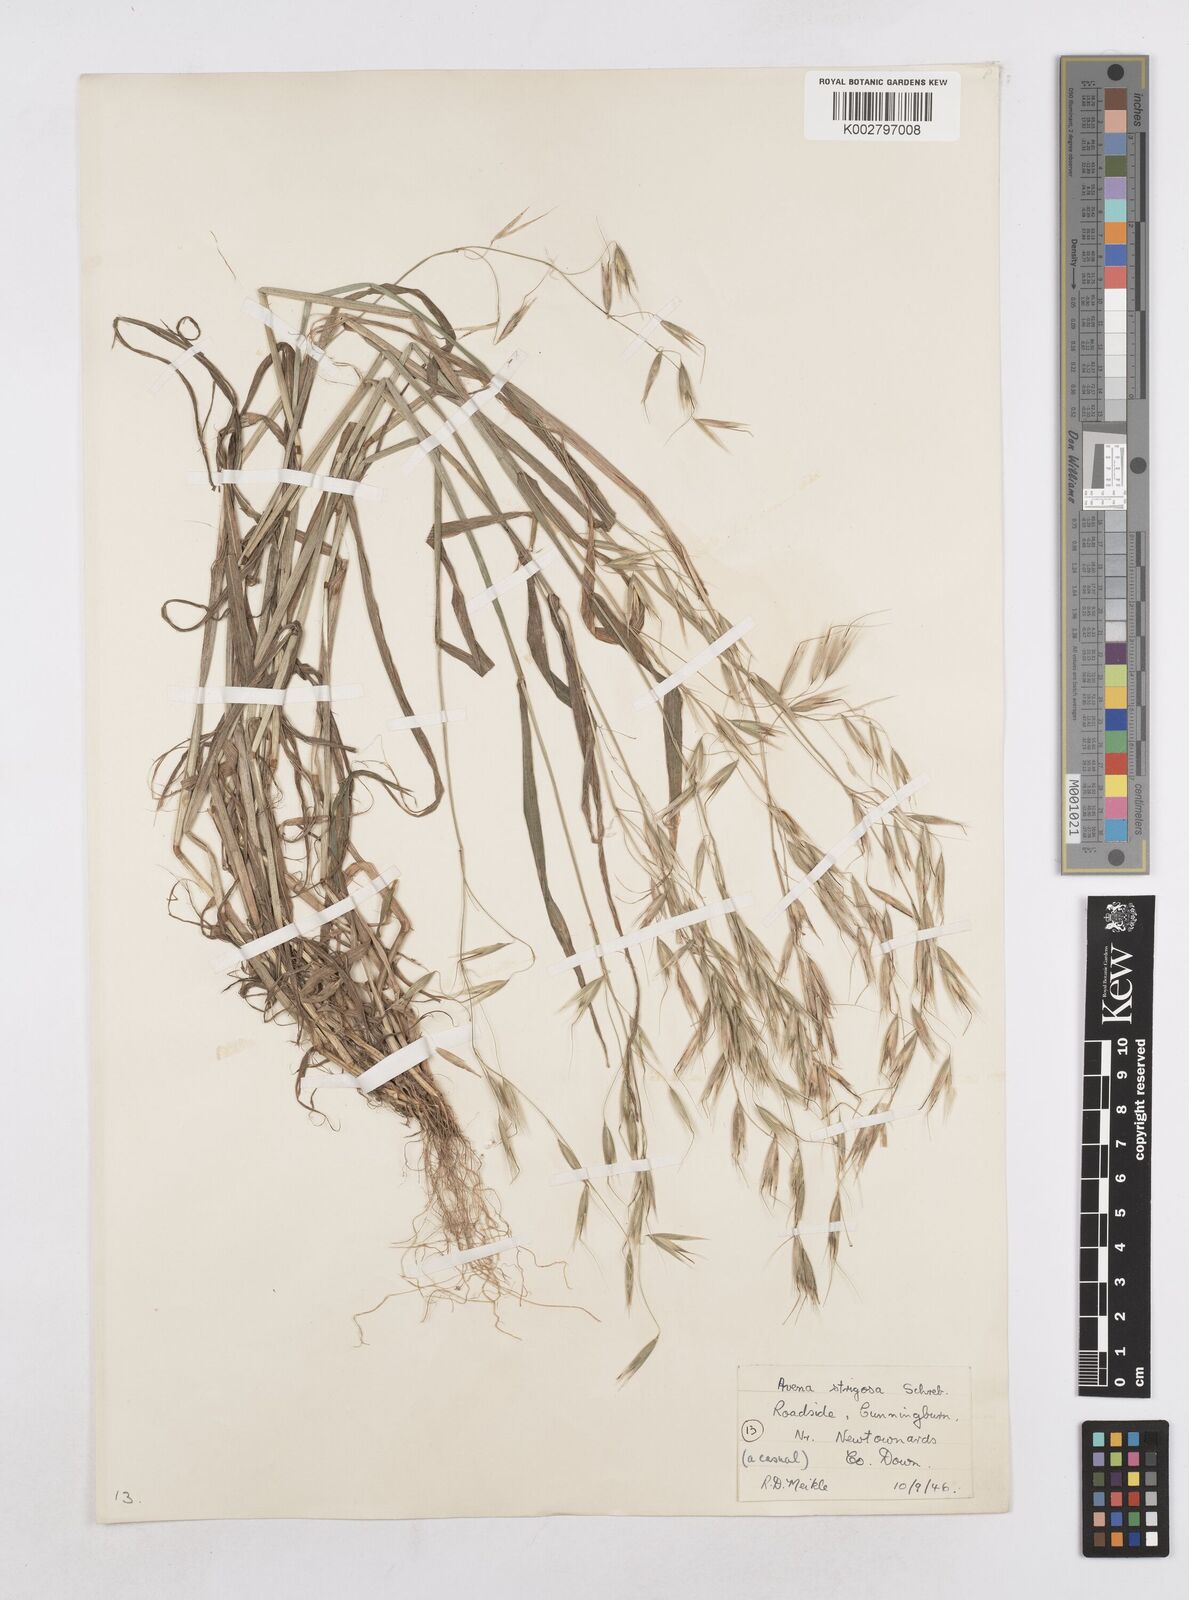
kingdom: Plantae
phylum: Tracheophyta
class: Liliopsida
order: Poales
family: Poaceae
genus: Avena
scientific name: Avena strigosa
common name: Bristle oat
